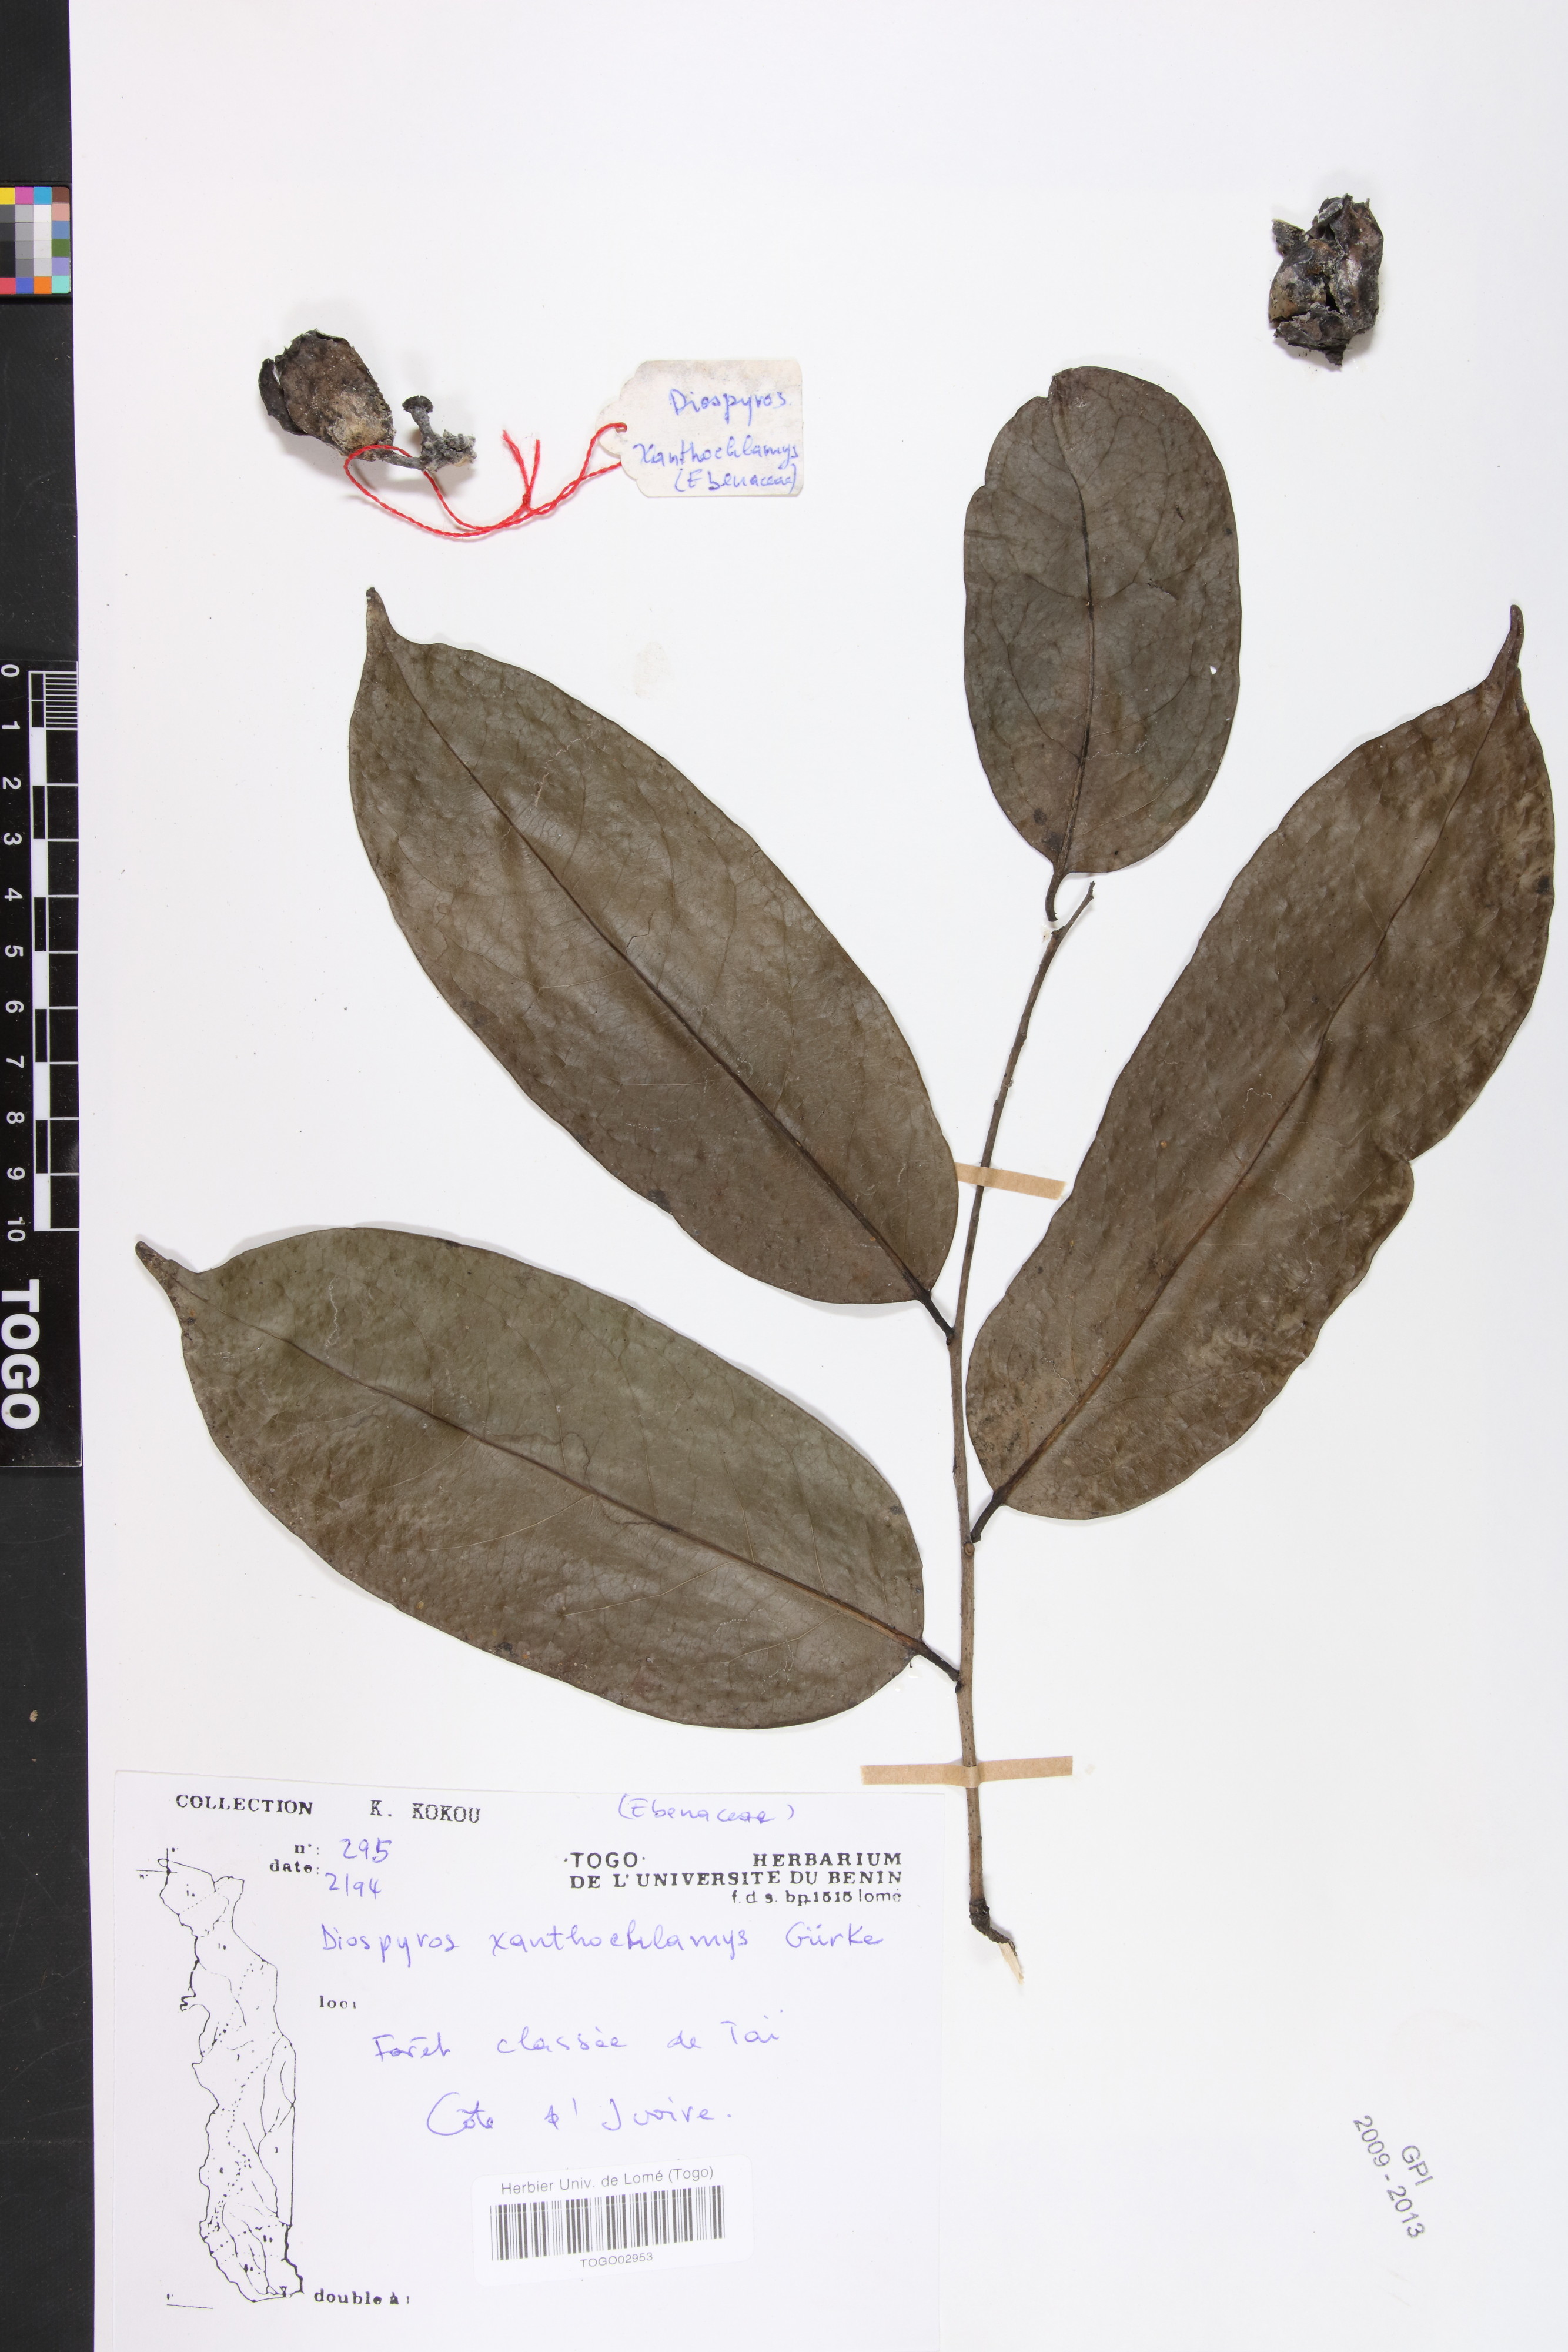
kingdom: Plantae
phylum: Tracheophyta
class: Magnoliopsida
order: Ericales
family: Ebenaceae
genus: Diospyros
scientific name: Diospyros tricolor
